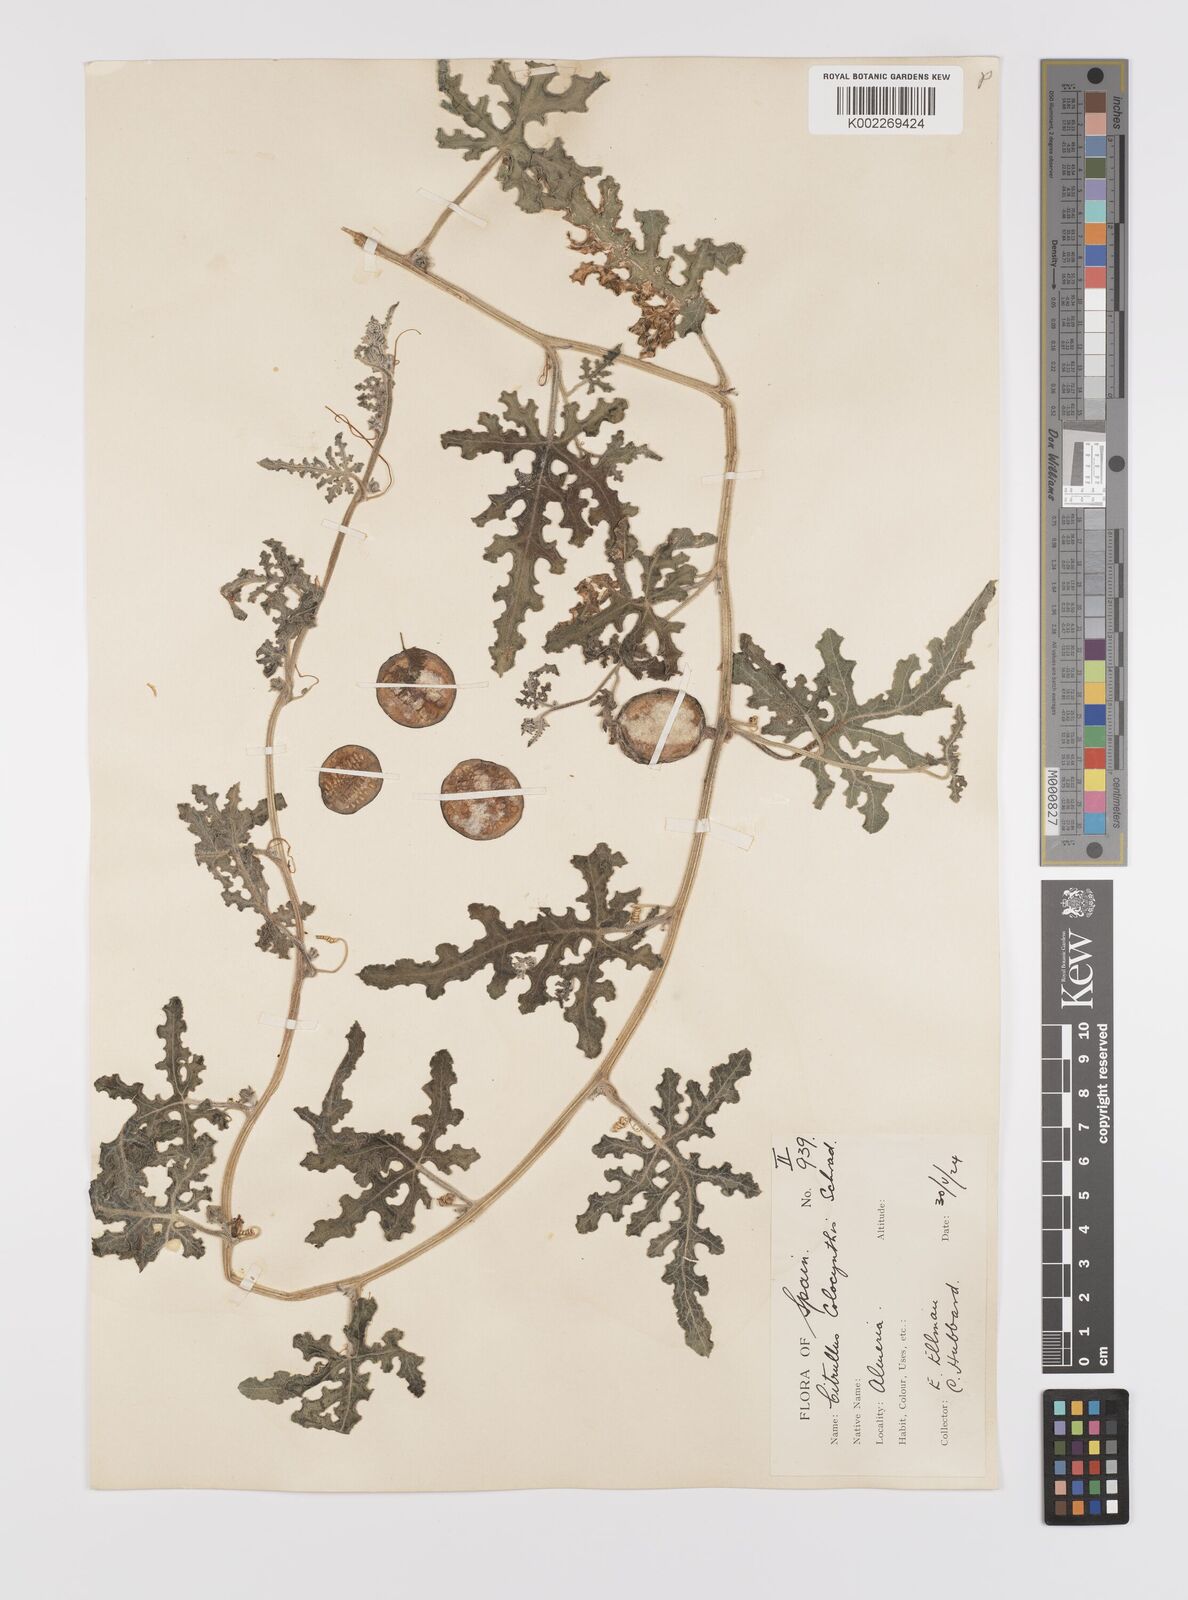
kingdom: Plantae
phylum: Tracheophyta
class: Magnoliopsida
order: Cucurbitales
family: Cucurbitaceae
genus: Citrullus
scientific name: Citrullus colocynthis
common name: Colocynth
